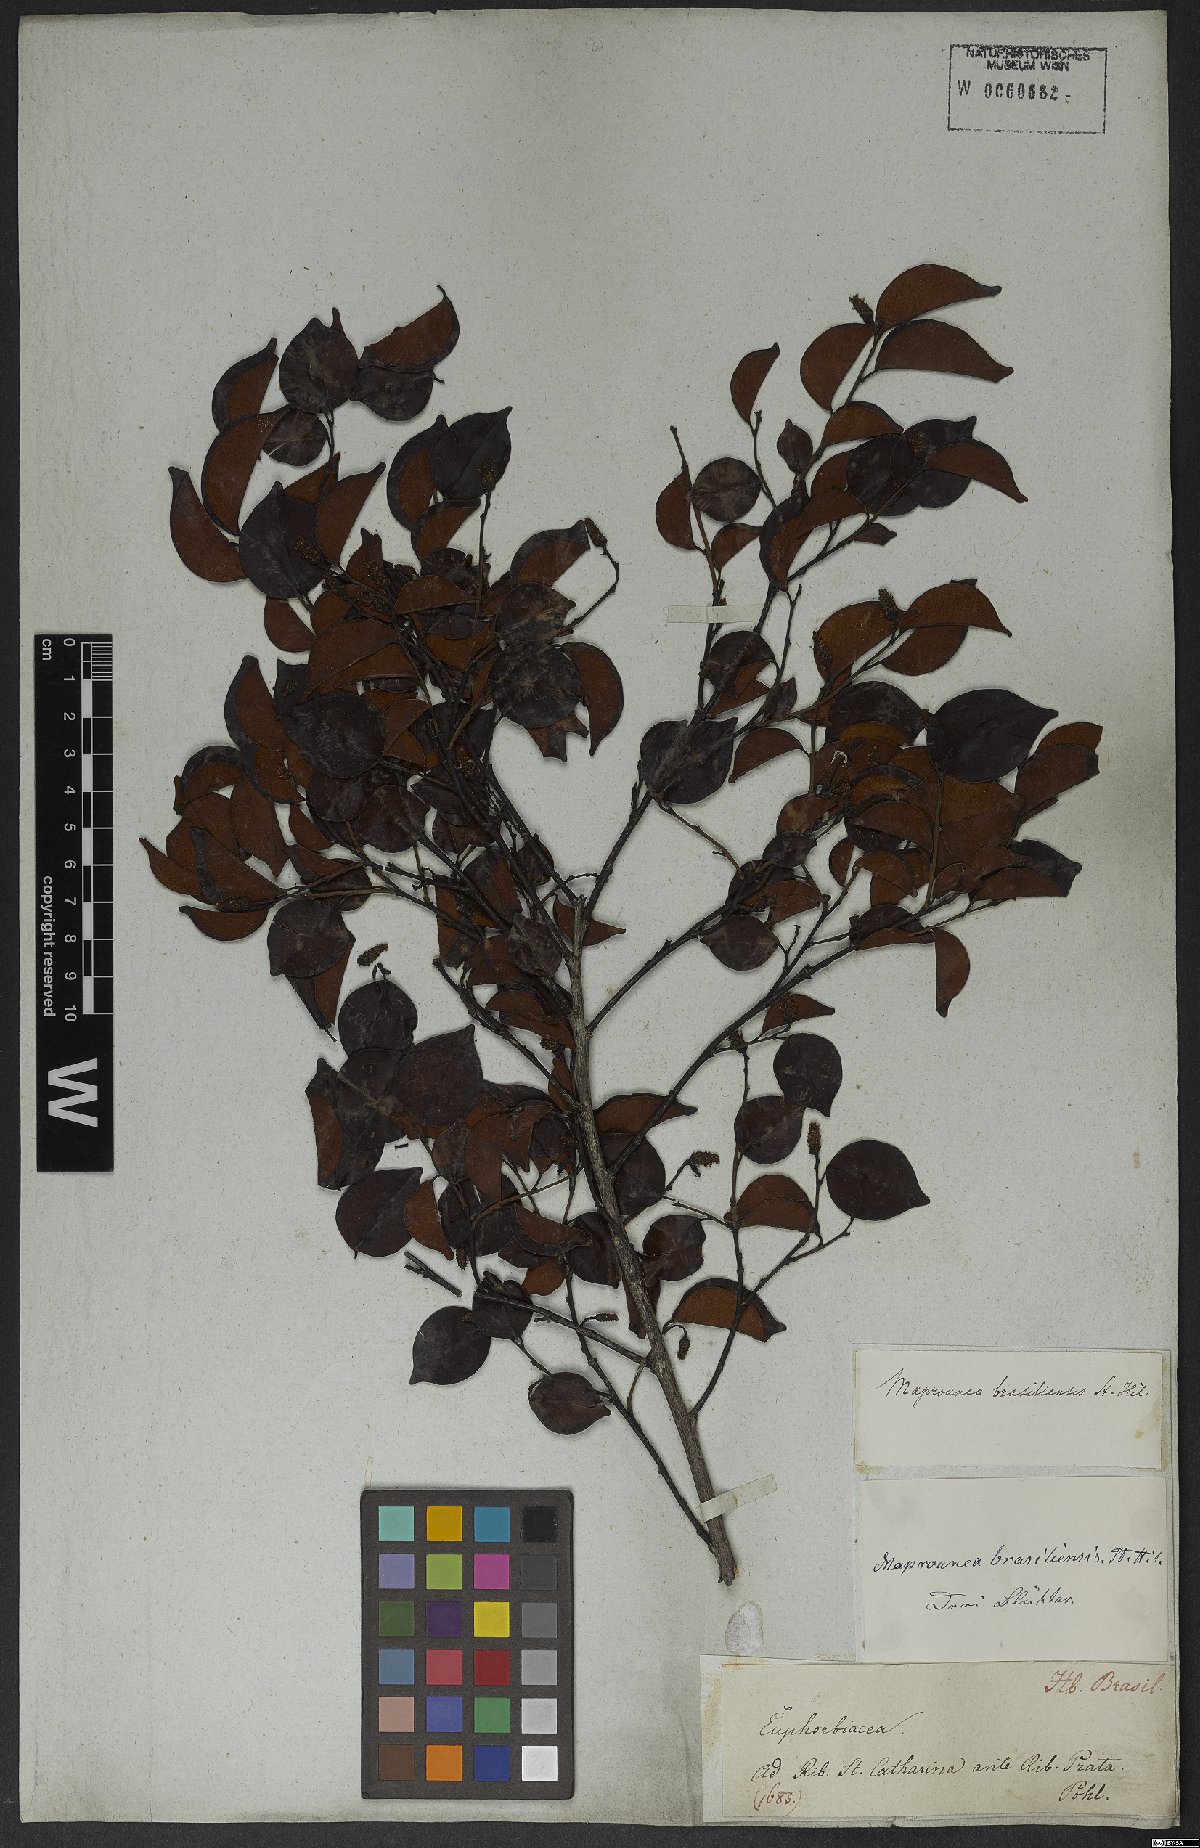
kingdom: Plantae
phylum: Tracheophyta
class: Magnoliopsida
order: Malpighiales
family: Euphorbiaceae
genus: Maprounea
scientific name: Maprounea brasiliensis
